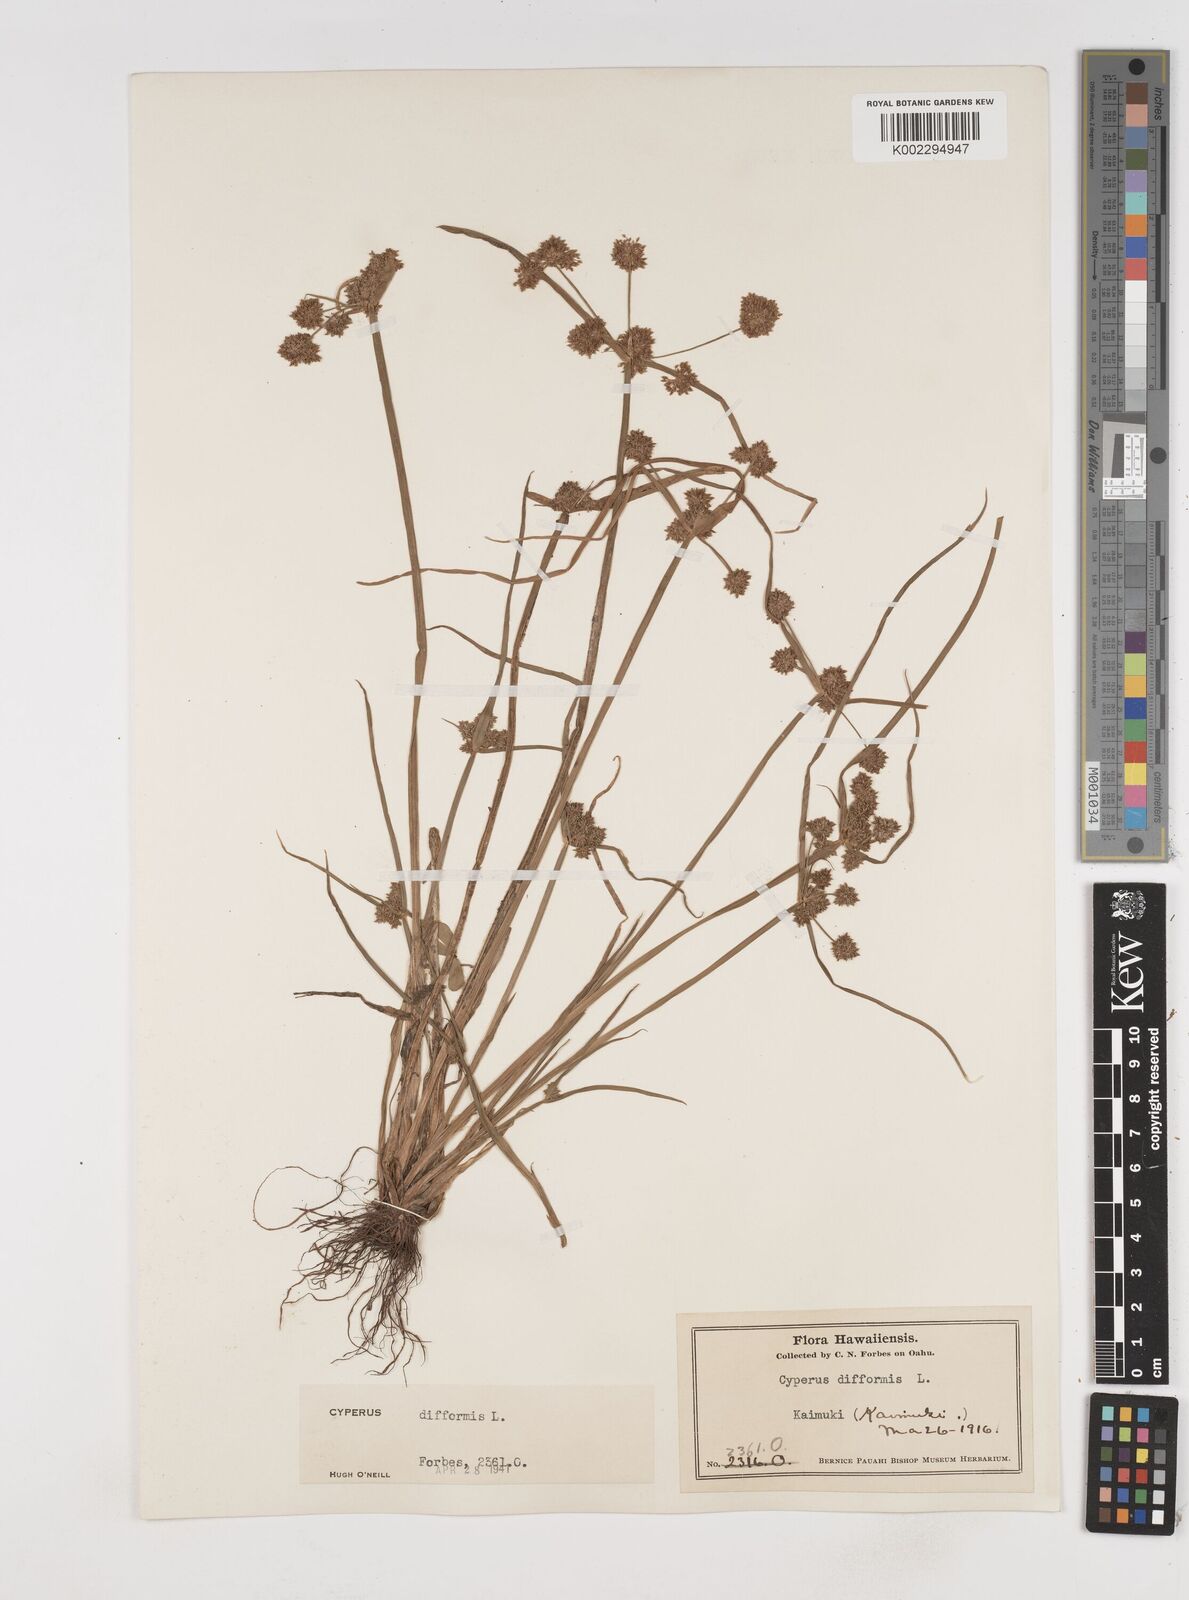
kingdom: Plantae
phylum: Tracheophyta
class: Liliopsida
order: Poales
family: Cyperaceae
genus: Cyperus
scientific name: Cyperus difformis
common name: Variable flatsedge
